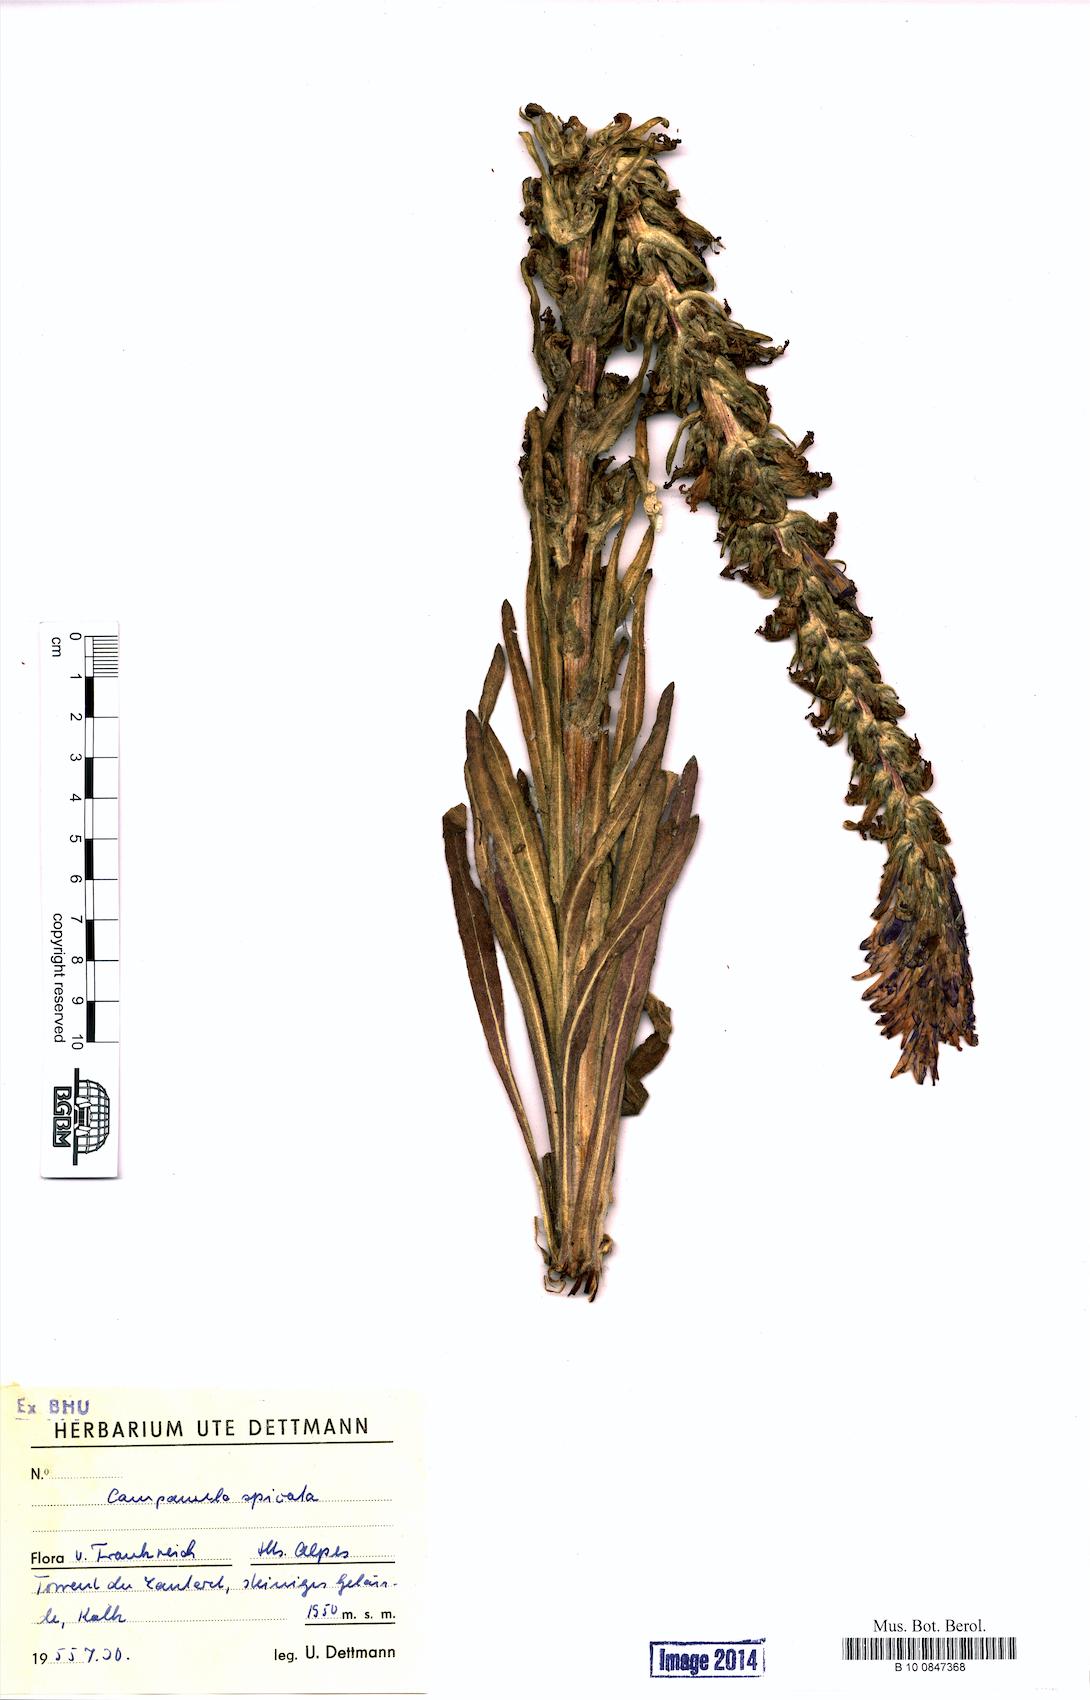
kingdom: Plantae
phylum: Tracheophyta
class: Magnoliopsida
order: Asterales
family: Campanulaceae
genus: Campanula
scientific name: Campanula spicata
